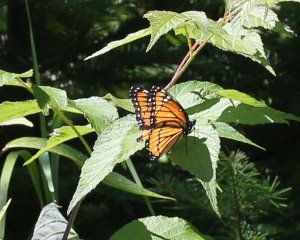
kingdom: Animalia
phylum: Arthropoda
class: Insecta
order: Lepidoptera
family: Nymphalidae
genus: Limenitis
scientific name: Limenitis archippus
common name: Viceroy
